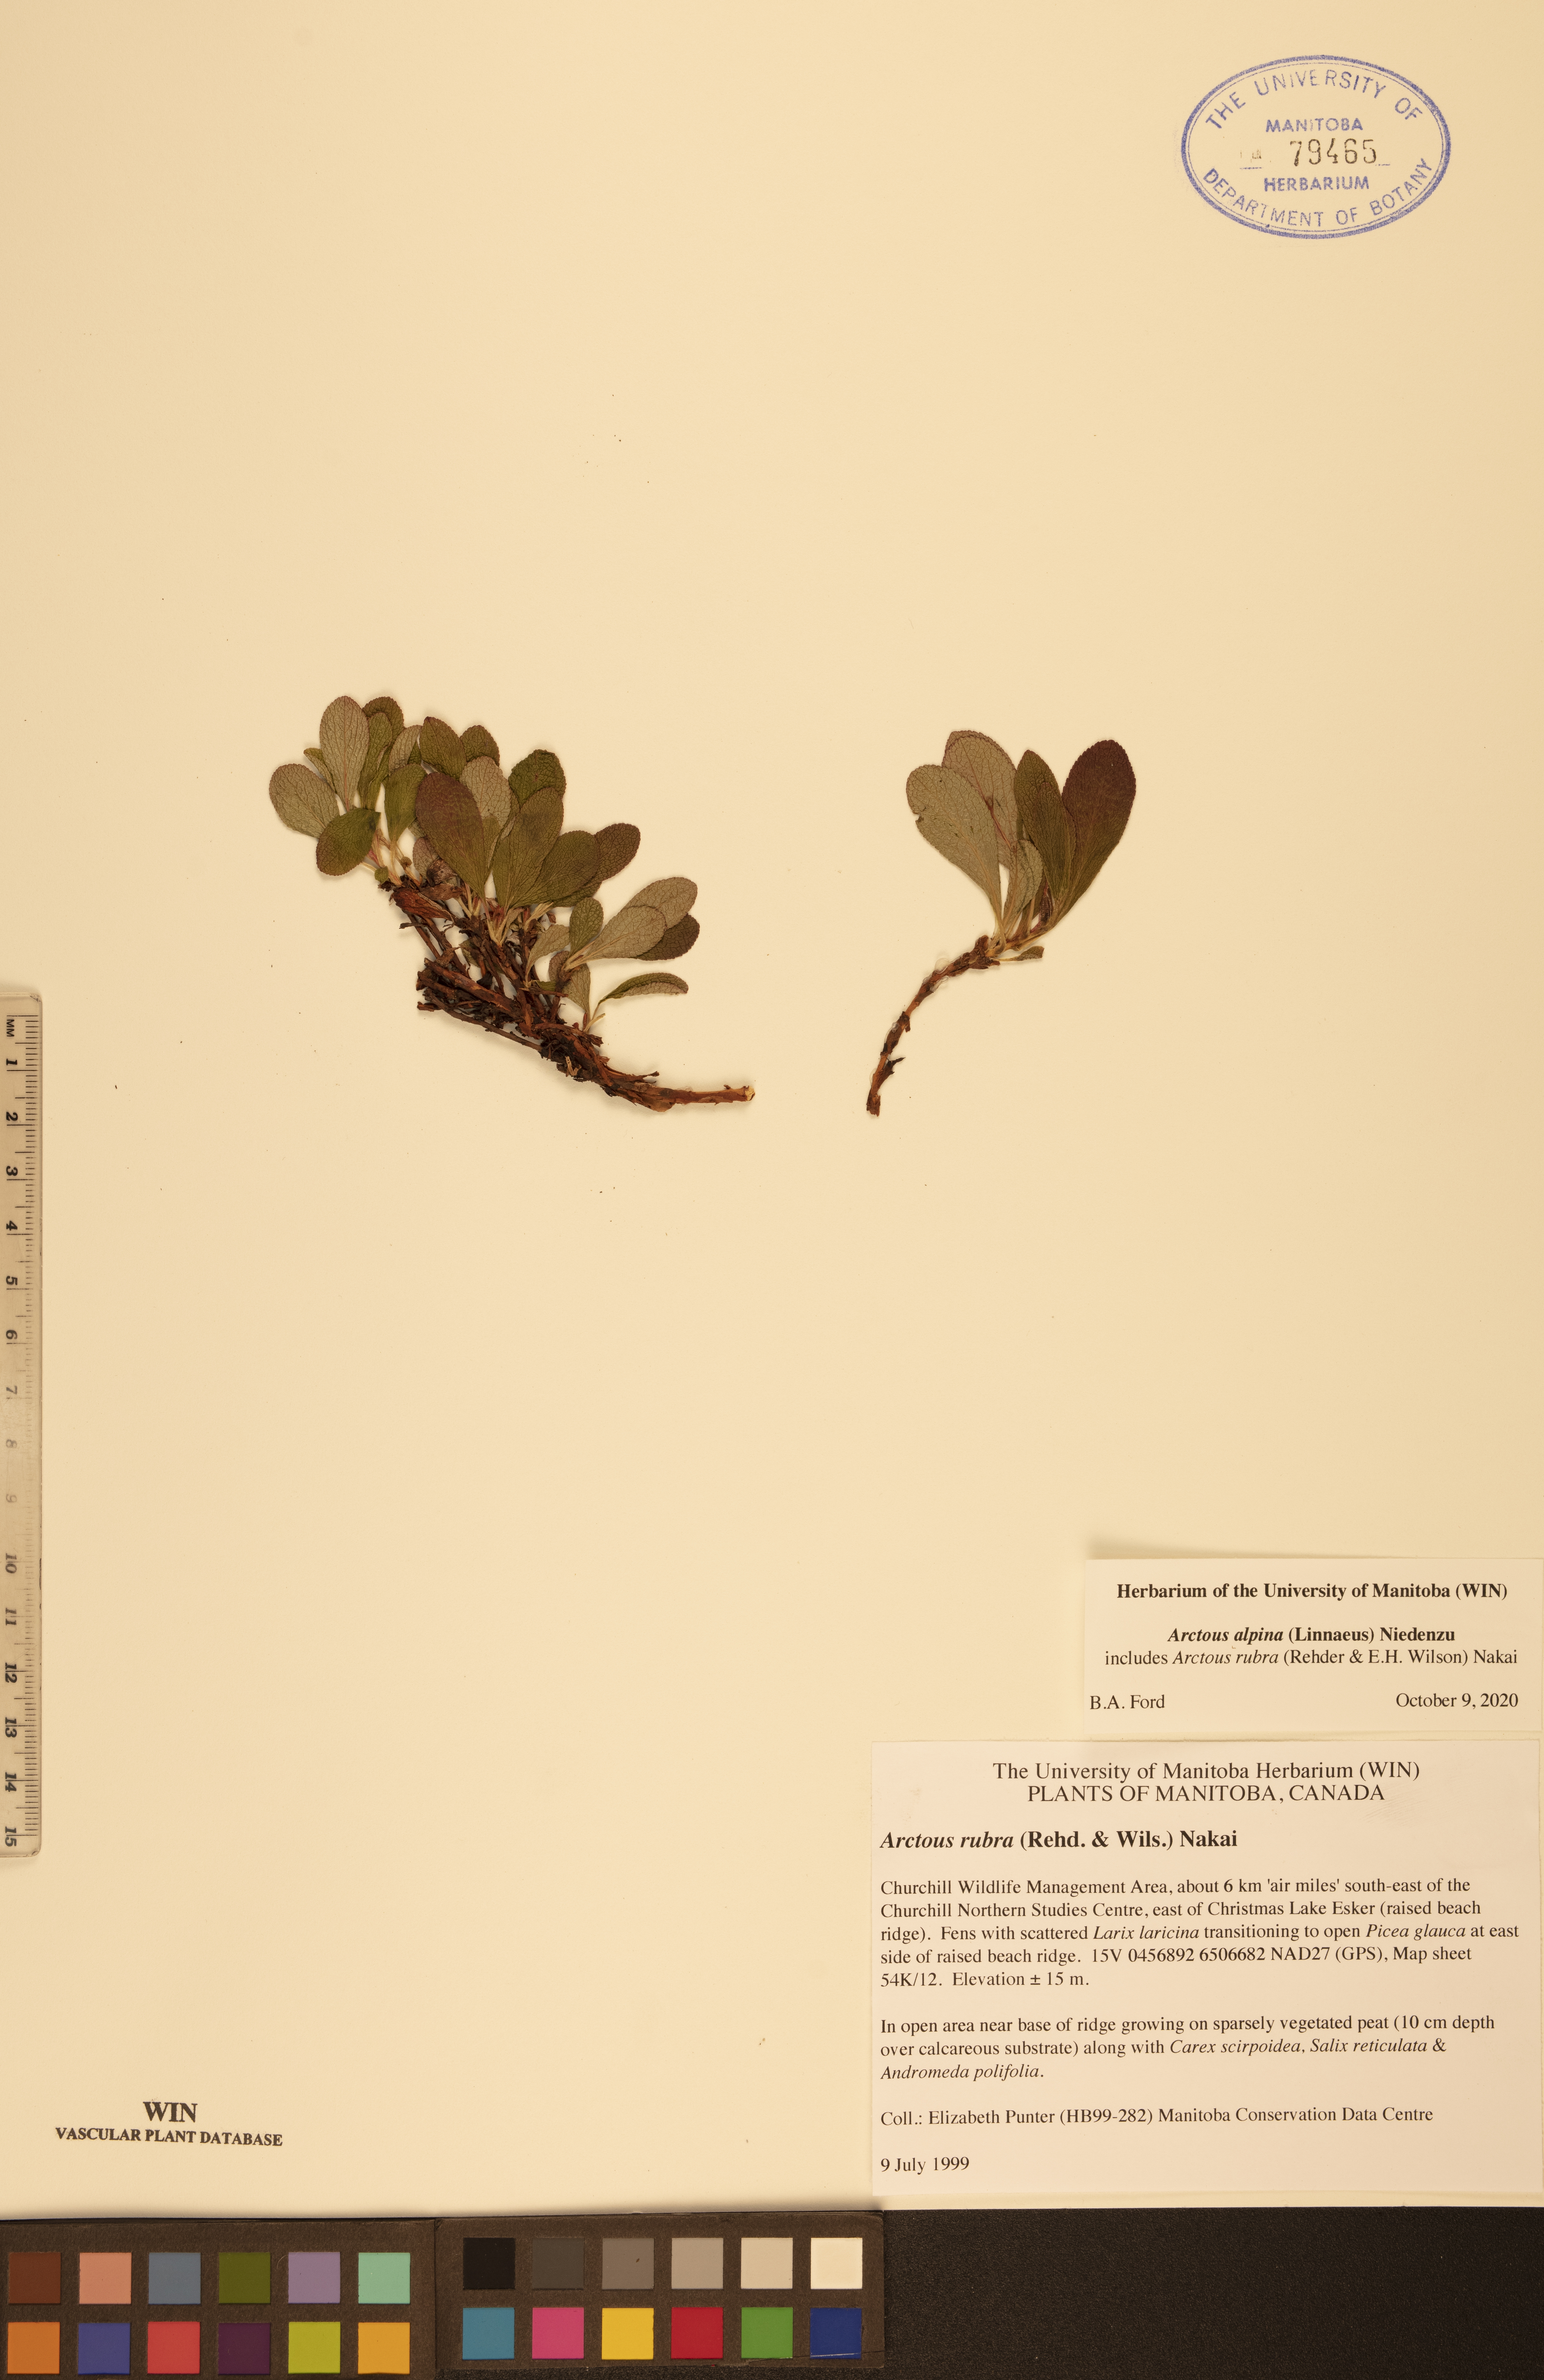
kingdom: Plantae
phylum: Tracheophyta
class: Magnoliopsida
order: Ericales
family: Ericaceae
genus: Arctostaphylos
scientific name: Arctostaphylos alpinus
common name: Alpine bearberry
